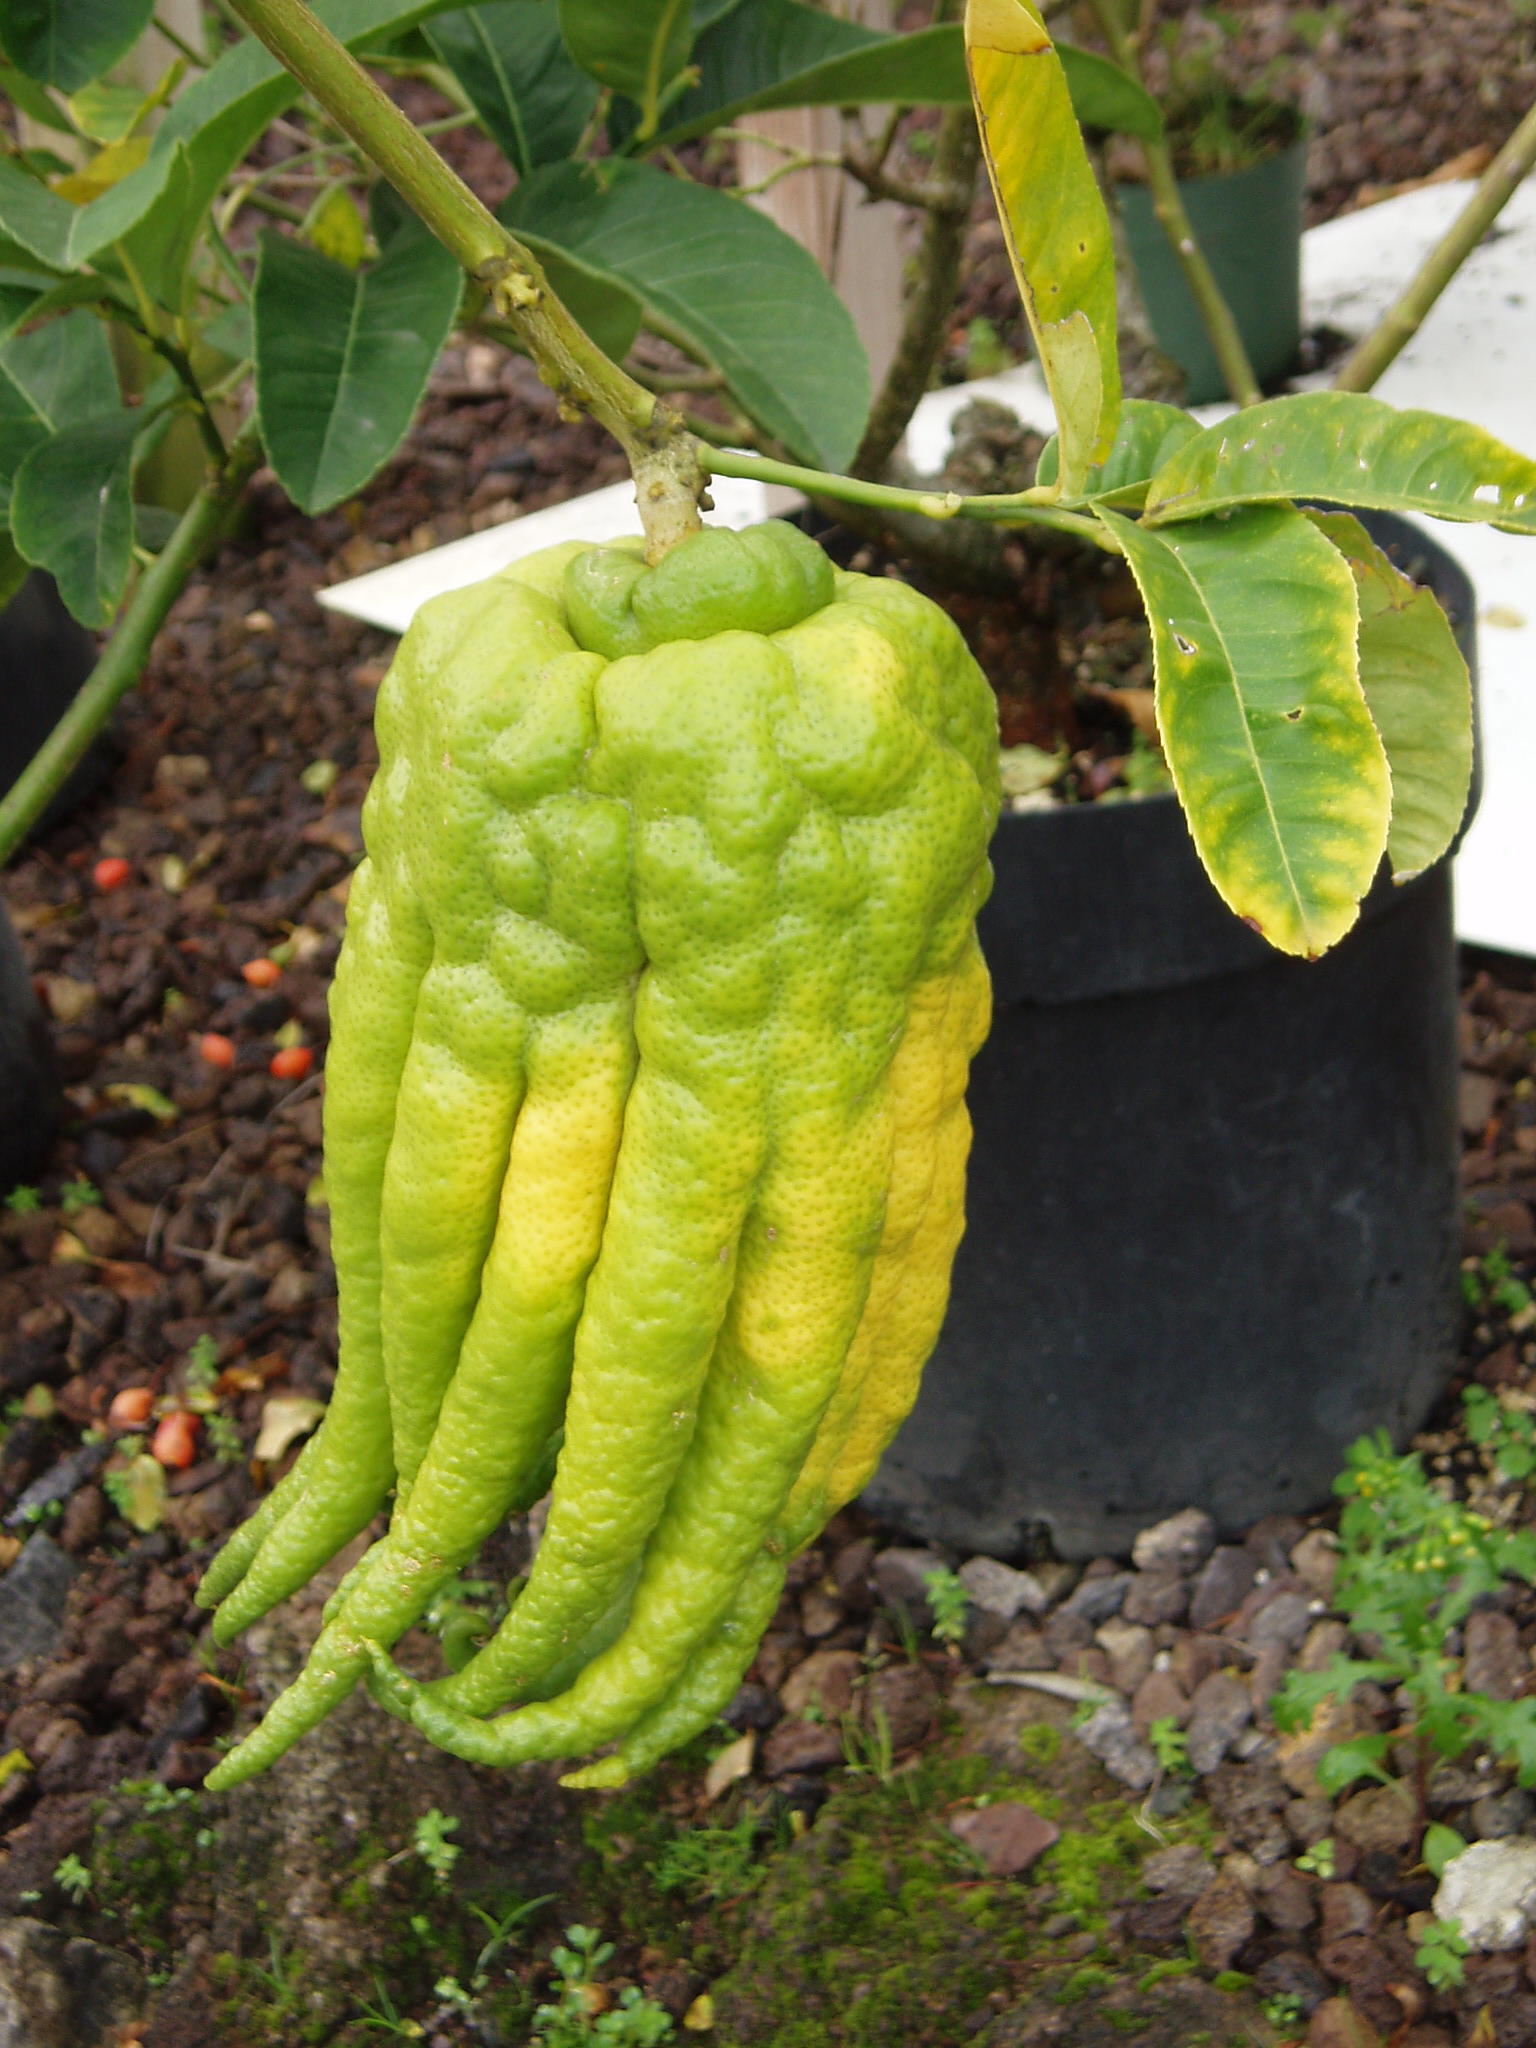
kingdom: Plantae
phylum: Tracheophyta
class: Magnoliopsida
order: Sapindales
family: Rutaceae
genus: Citrus
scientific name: Citrus medica
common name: Citron
